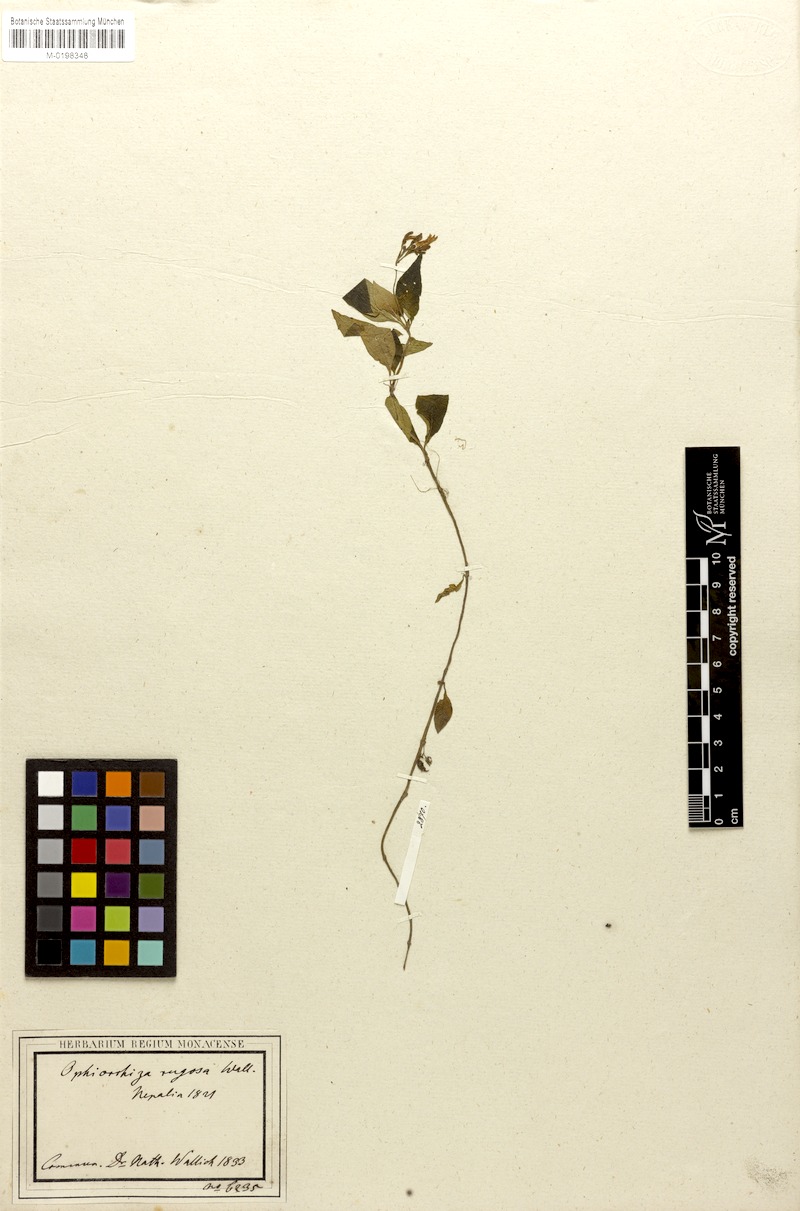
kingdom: Plantae
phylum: Tracheophyta
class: Magnoliopsida
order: Gentianales
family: Rubiaceae
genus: Ophiorrhiza
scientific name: Ophiorrhiza rugosa
